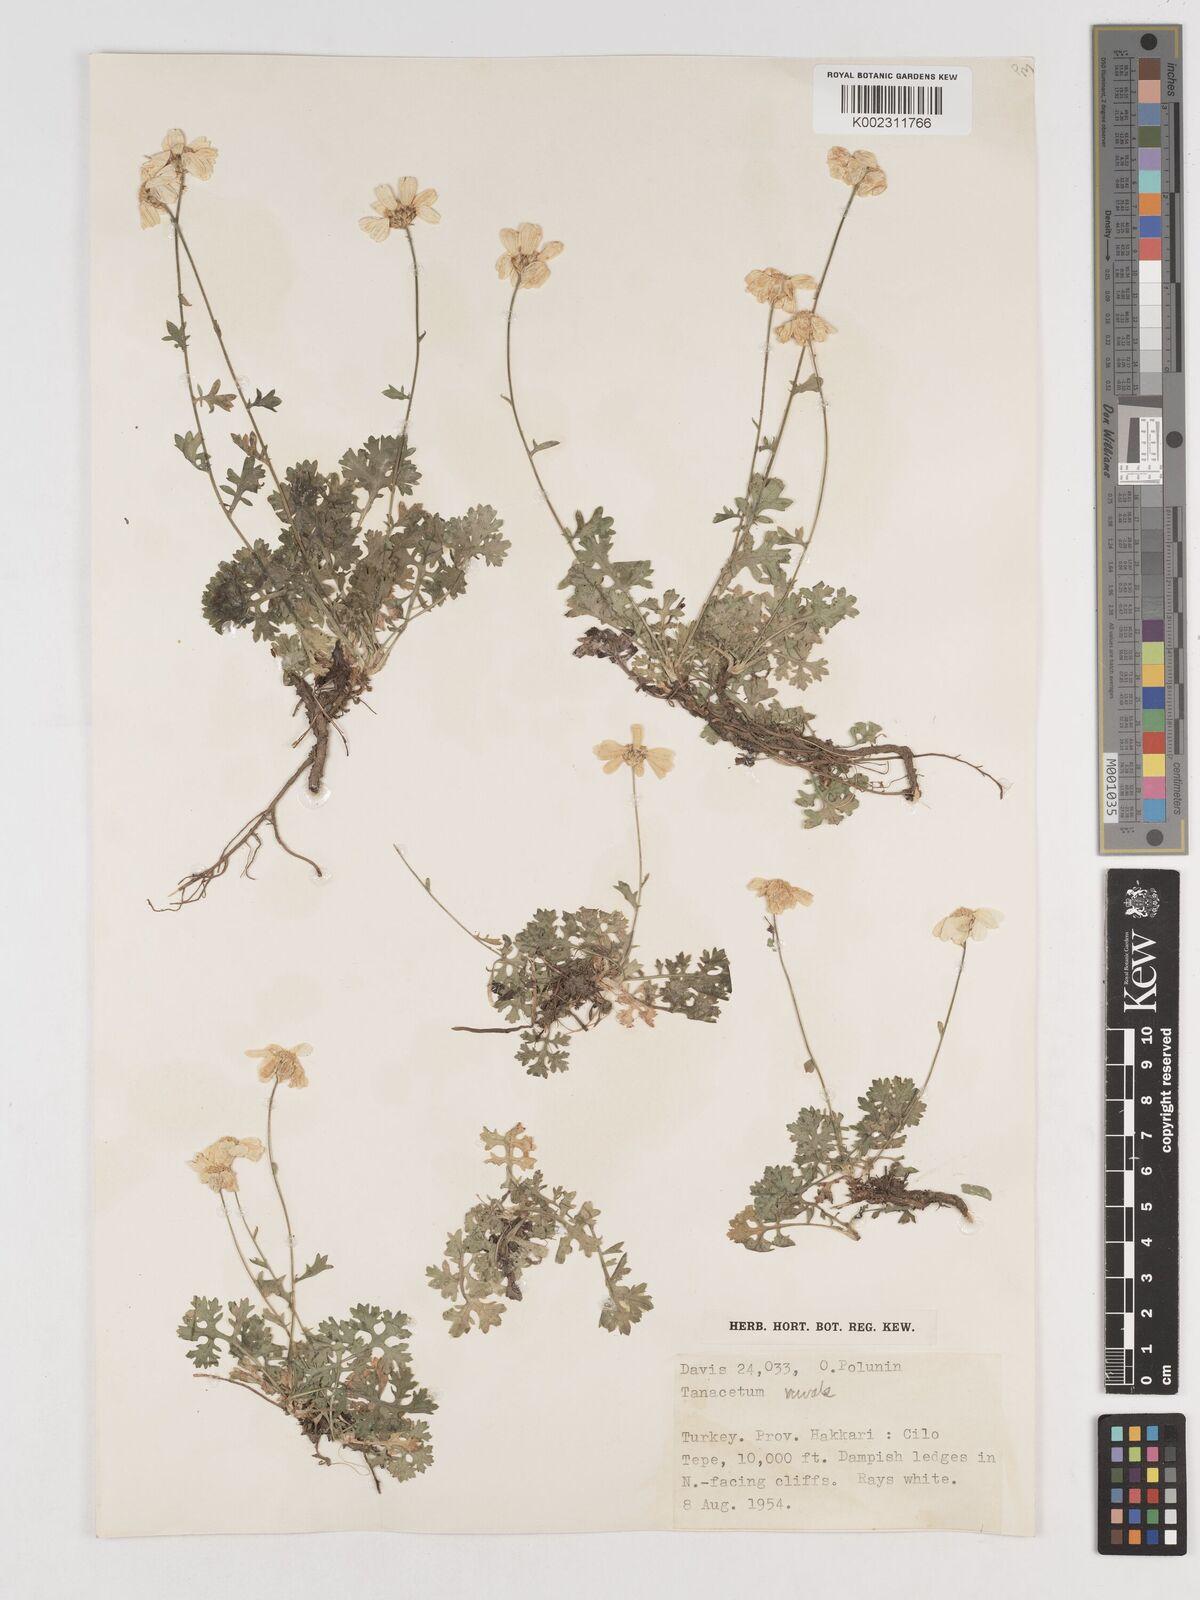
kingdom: Plantae
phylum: Tracheophyta
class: Magnoliopsida
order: Asterales
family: Asteraceae
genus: Tanacetum
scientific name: Tanacetum nivale
